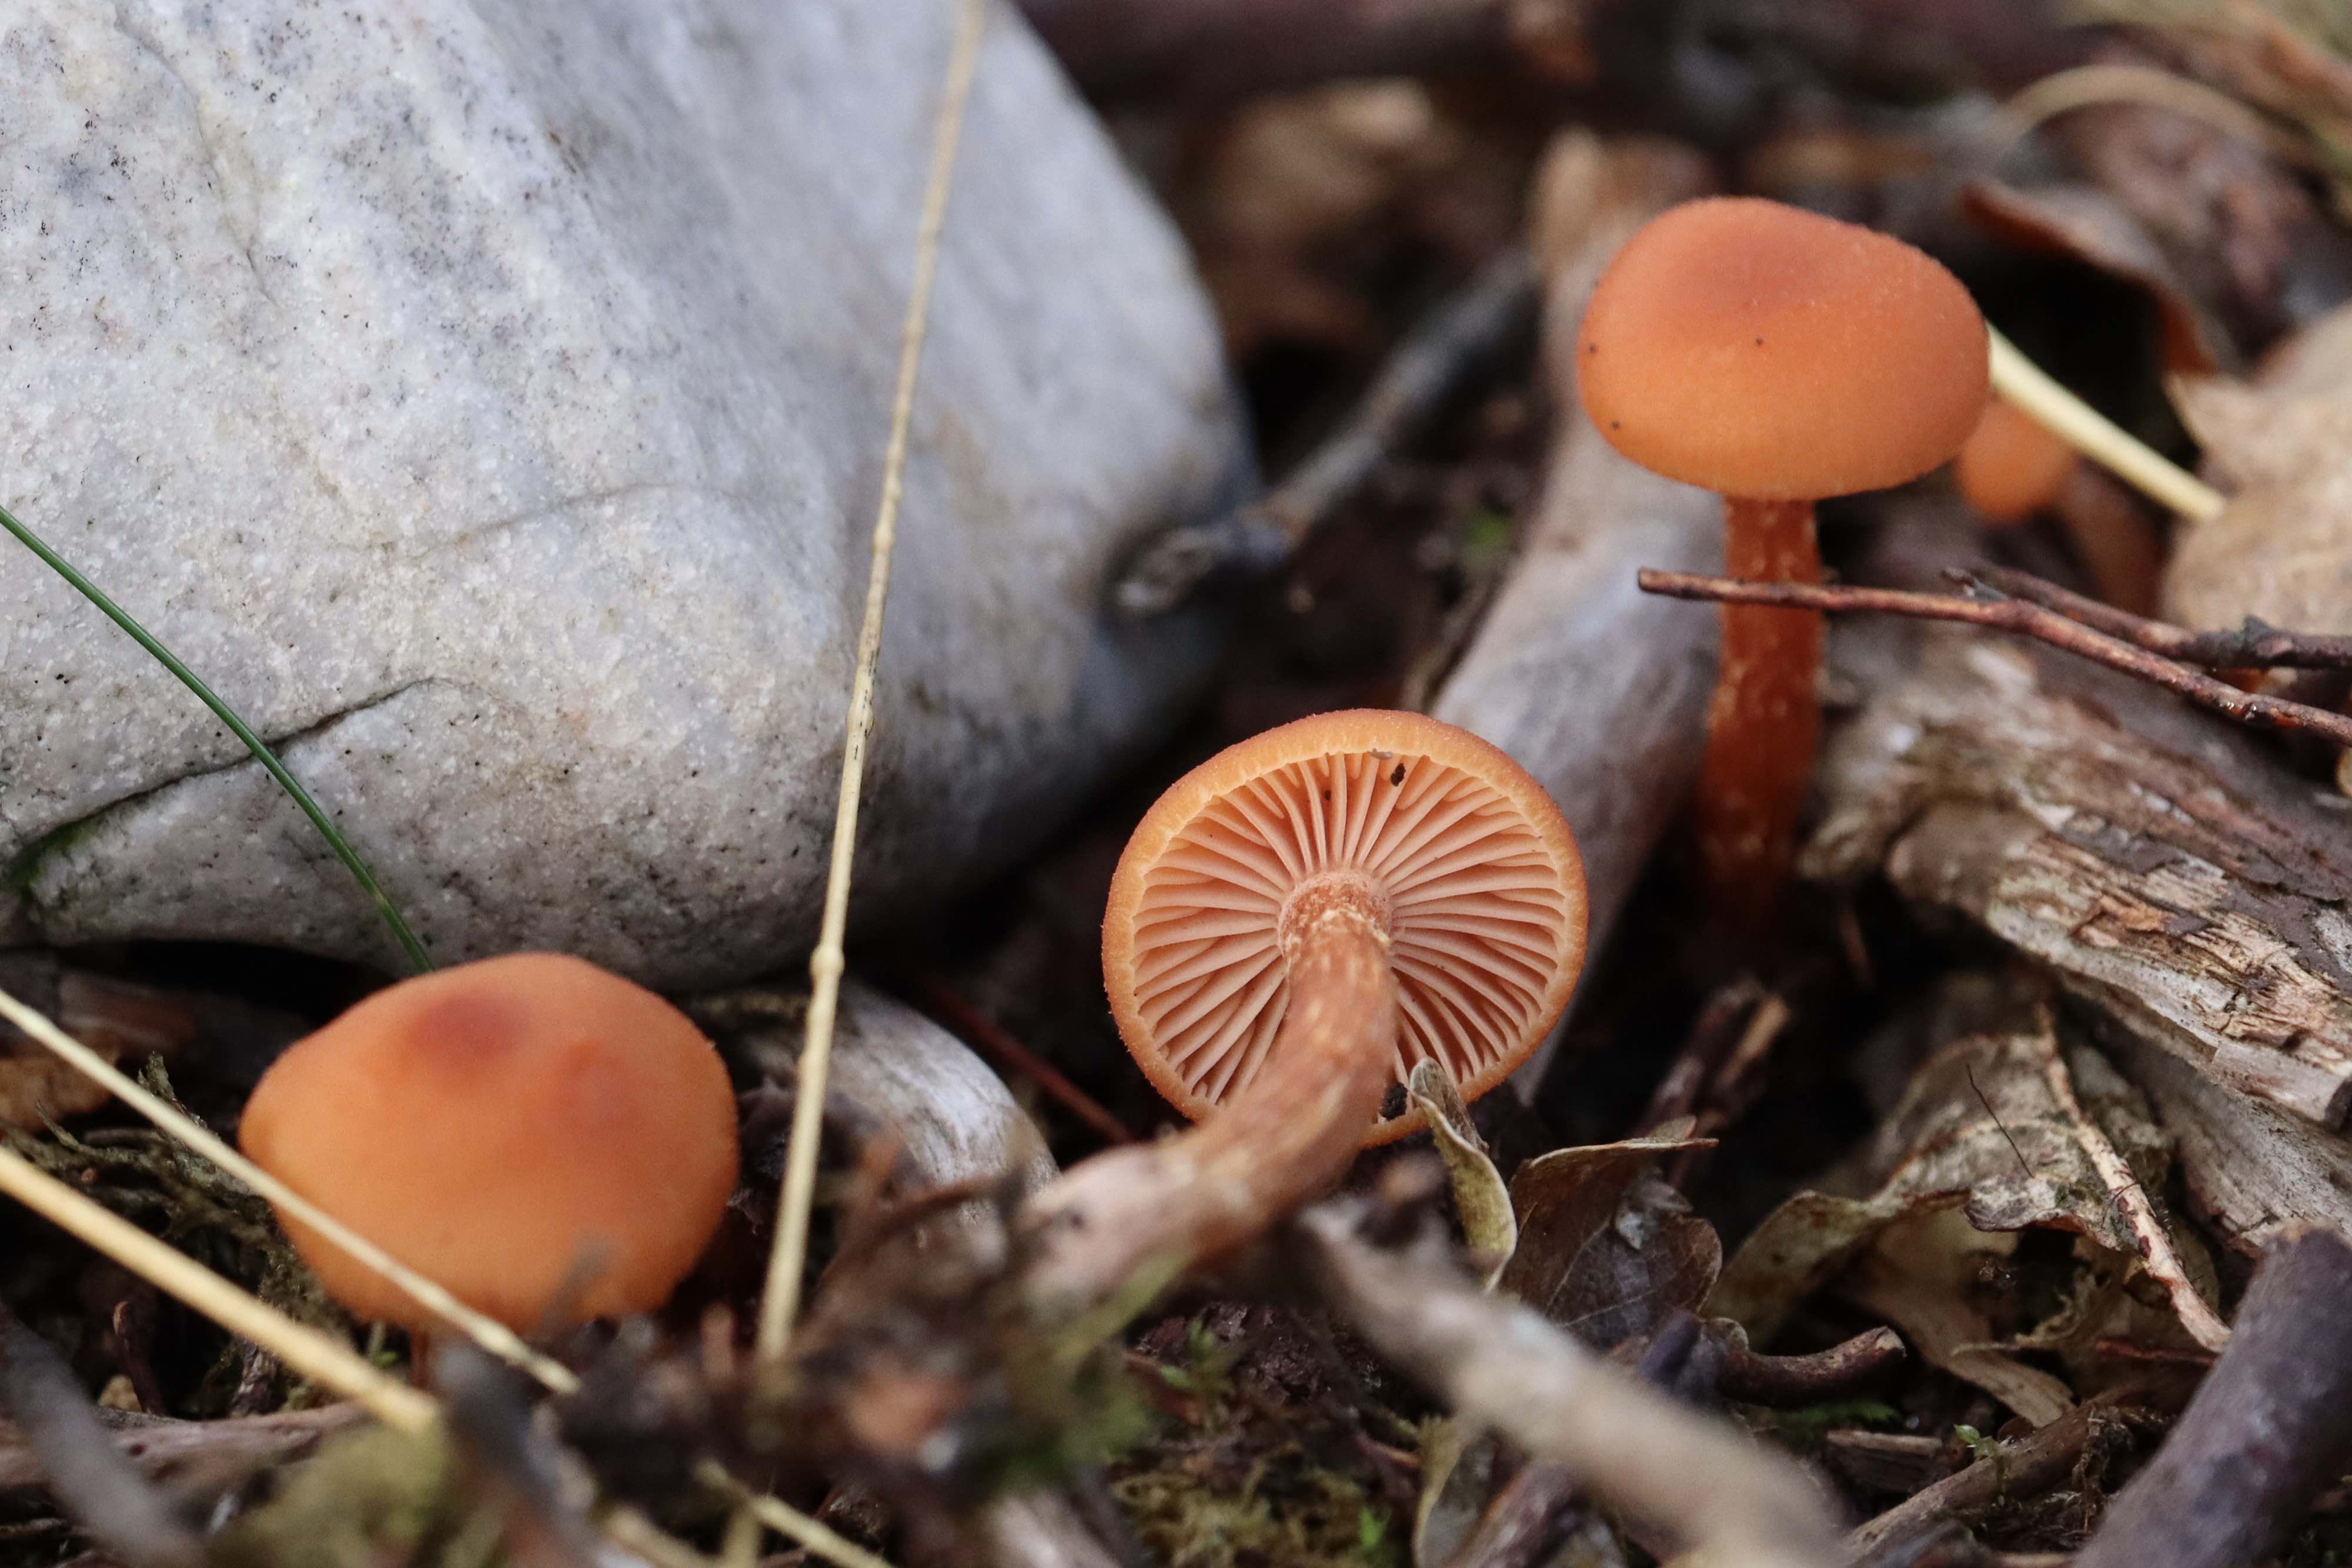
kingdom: Fungi
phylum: Basidiomycota
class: Agaricomycetes
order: Agaricales
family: Hydnangiaceae
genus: Laccaria
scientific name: Laccaria proxima
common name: stor ametysthat
